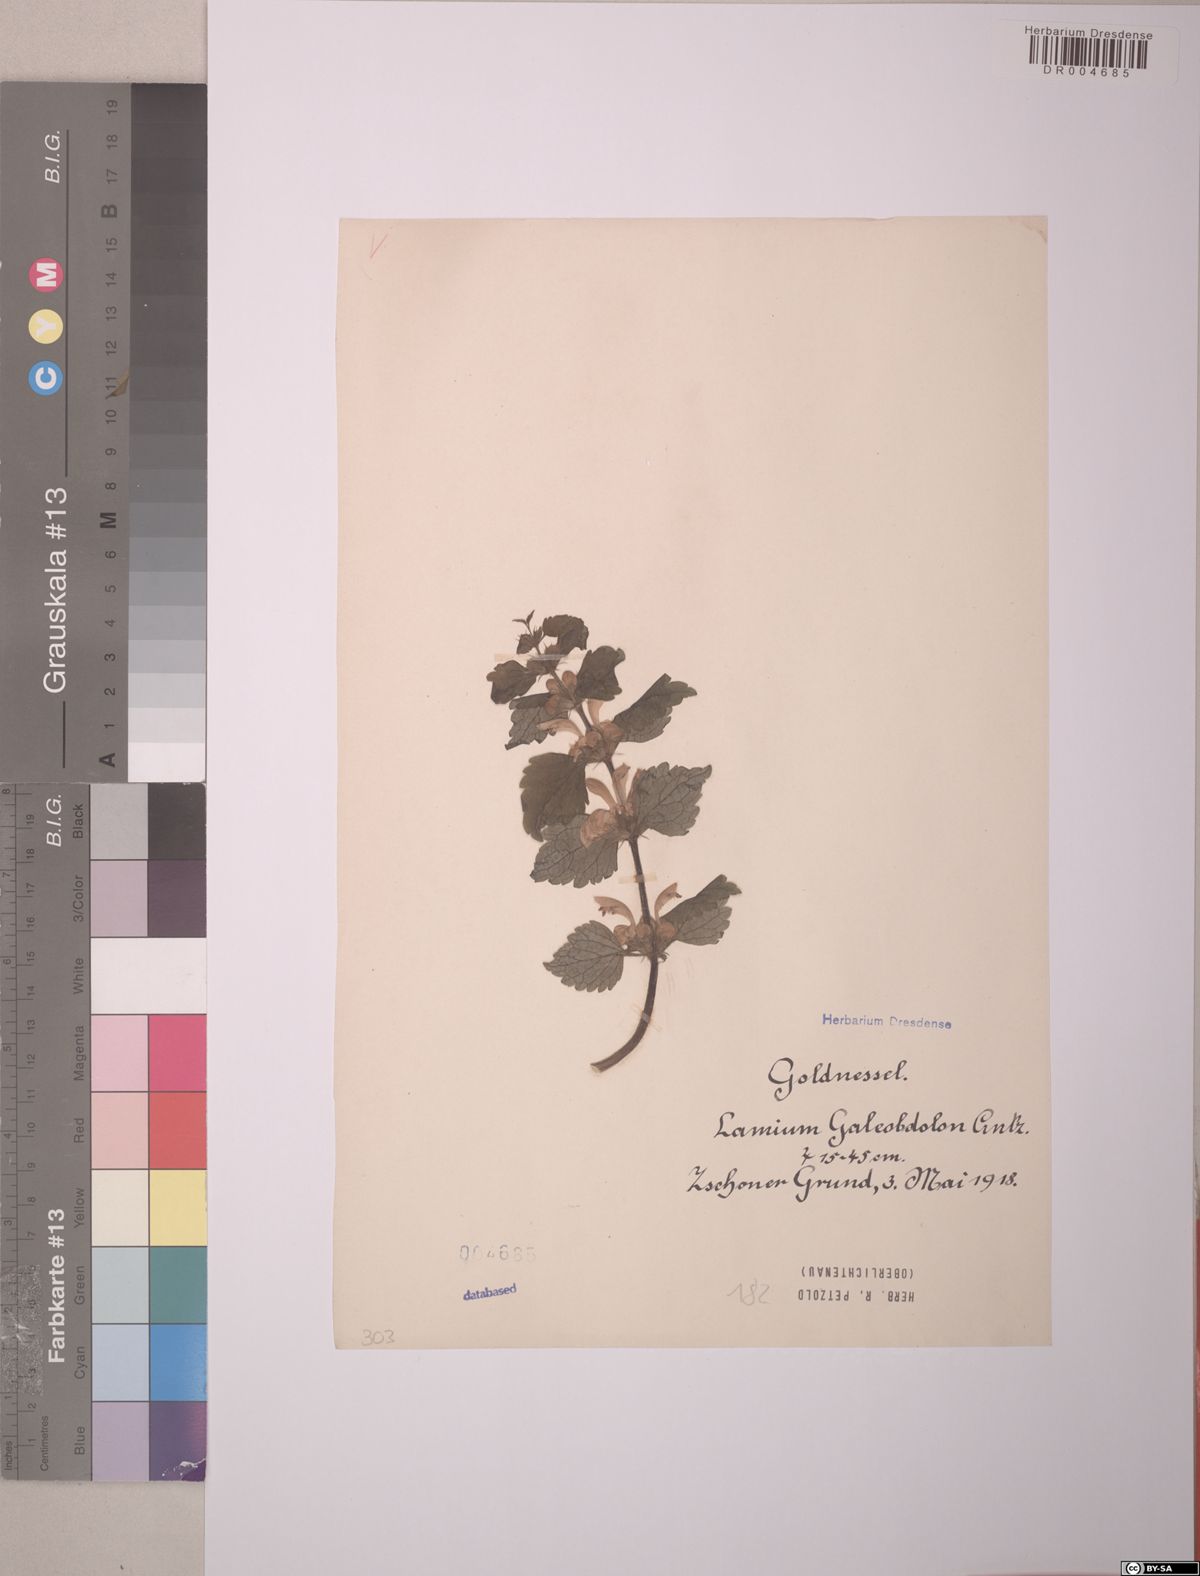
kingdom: Plantae
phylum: Tracheophyta
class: Magnoliopsida
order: Lamiales
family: Lamiaceae
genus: Lamium
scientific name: Lamium galeobdolon
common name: Yellow archangel
